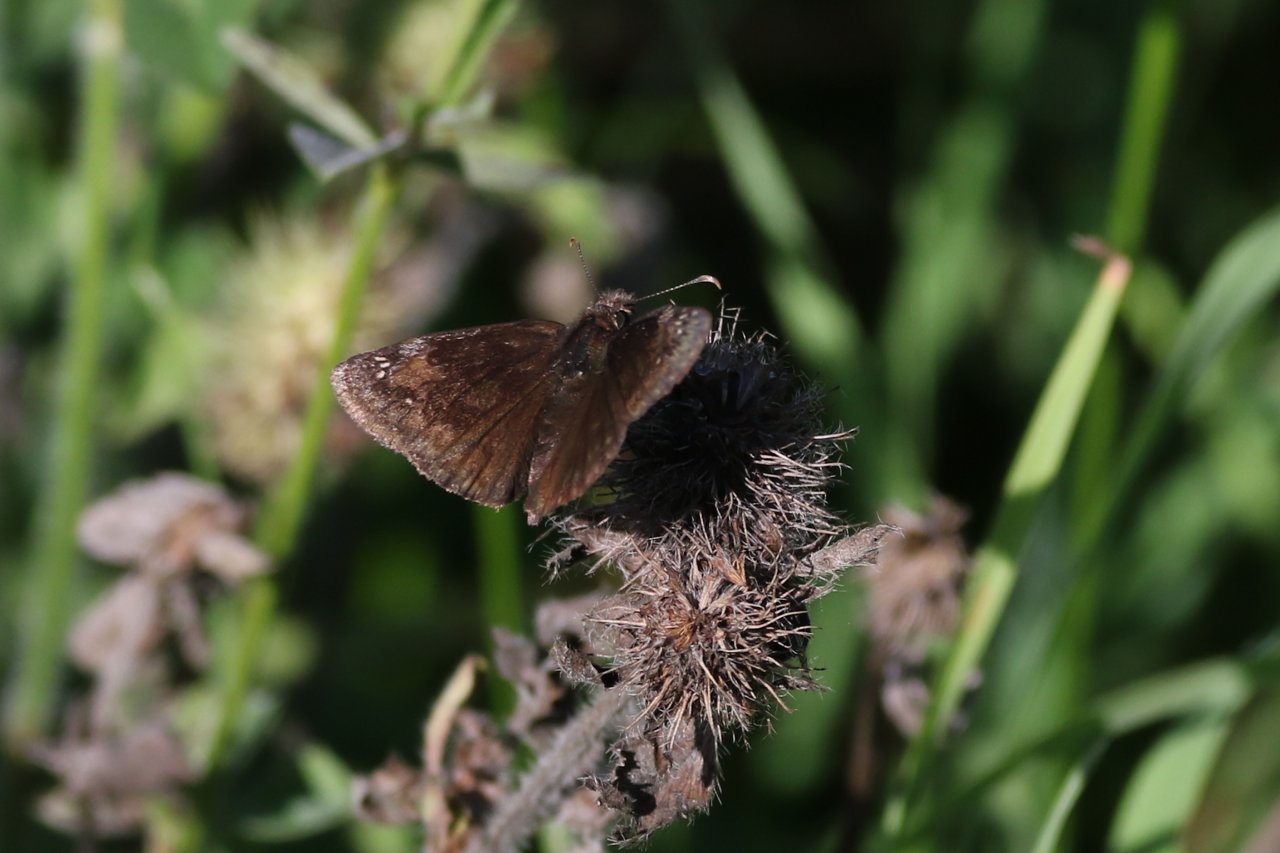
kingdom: Animalia
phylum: Arthropoda
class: Insecta
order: Lepidoptera
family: Hesperiidae
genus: Gesta
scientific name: Gesta
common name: Wild Indigo Duskywing
